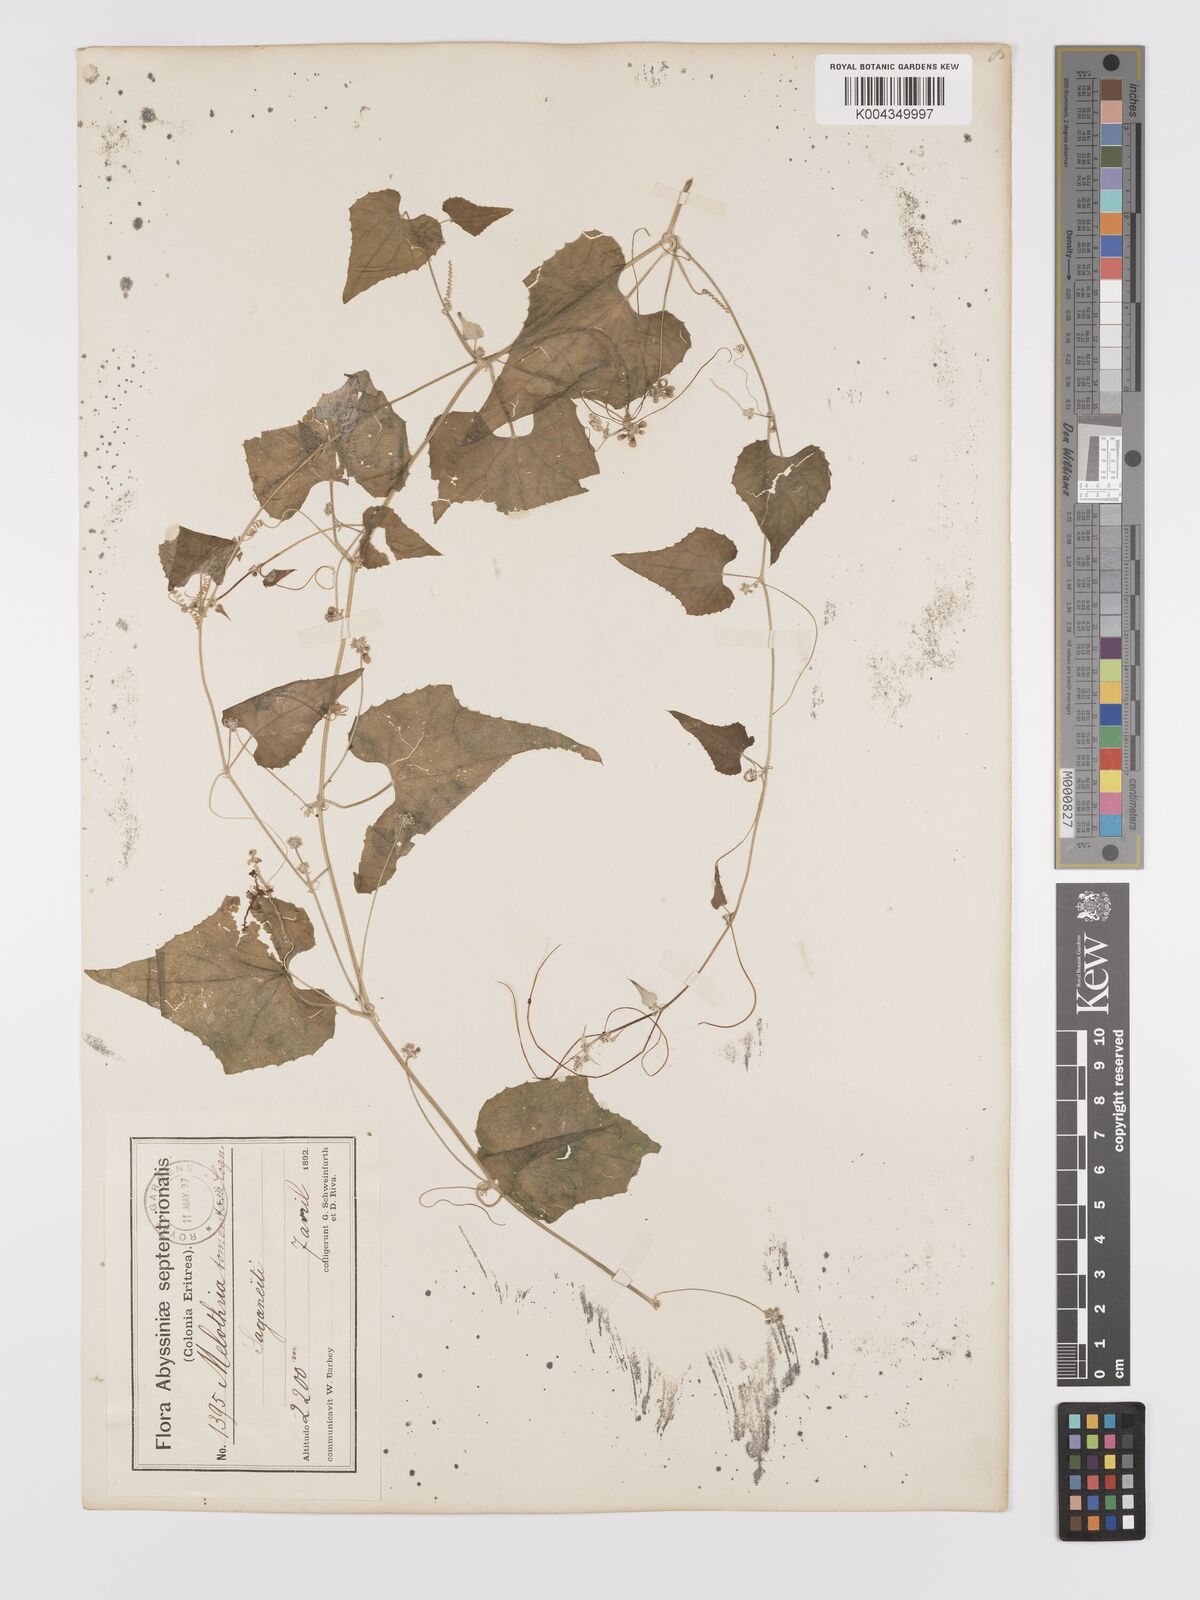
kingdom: Plantae
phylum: Tracheophyta
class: Magnoliopsida
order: Cucurbitales
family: Cucurbitaceae
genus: Zehneria
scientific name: Zehneria scabra
